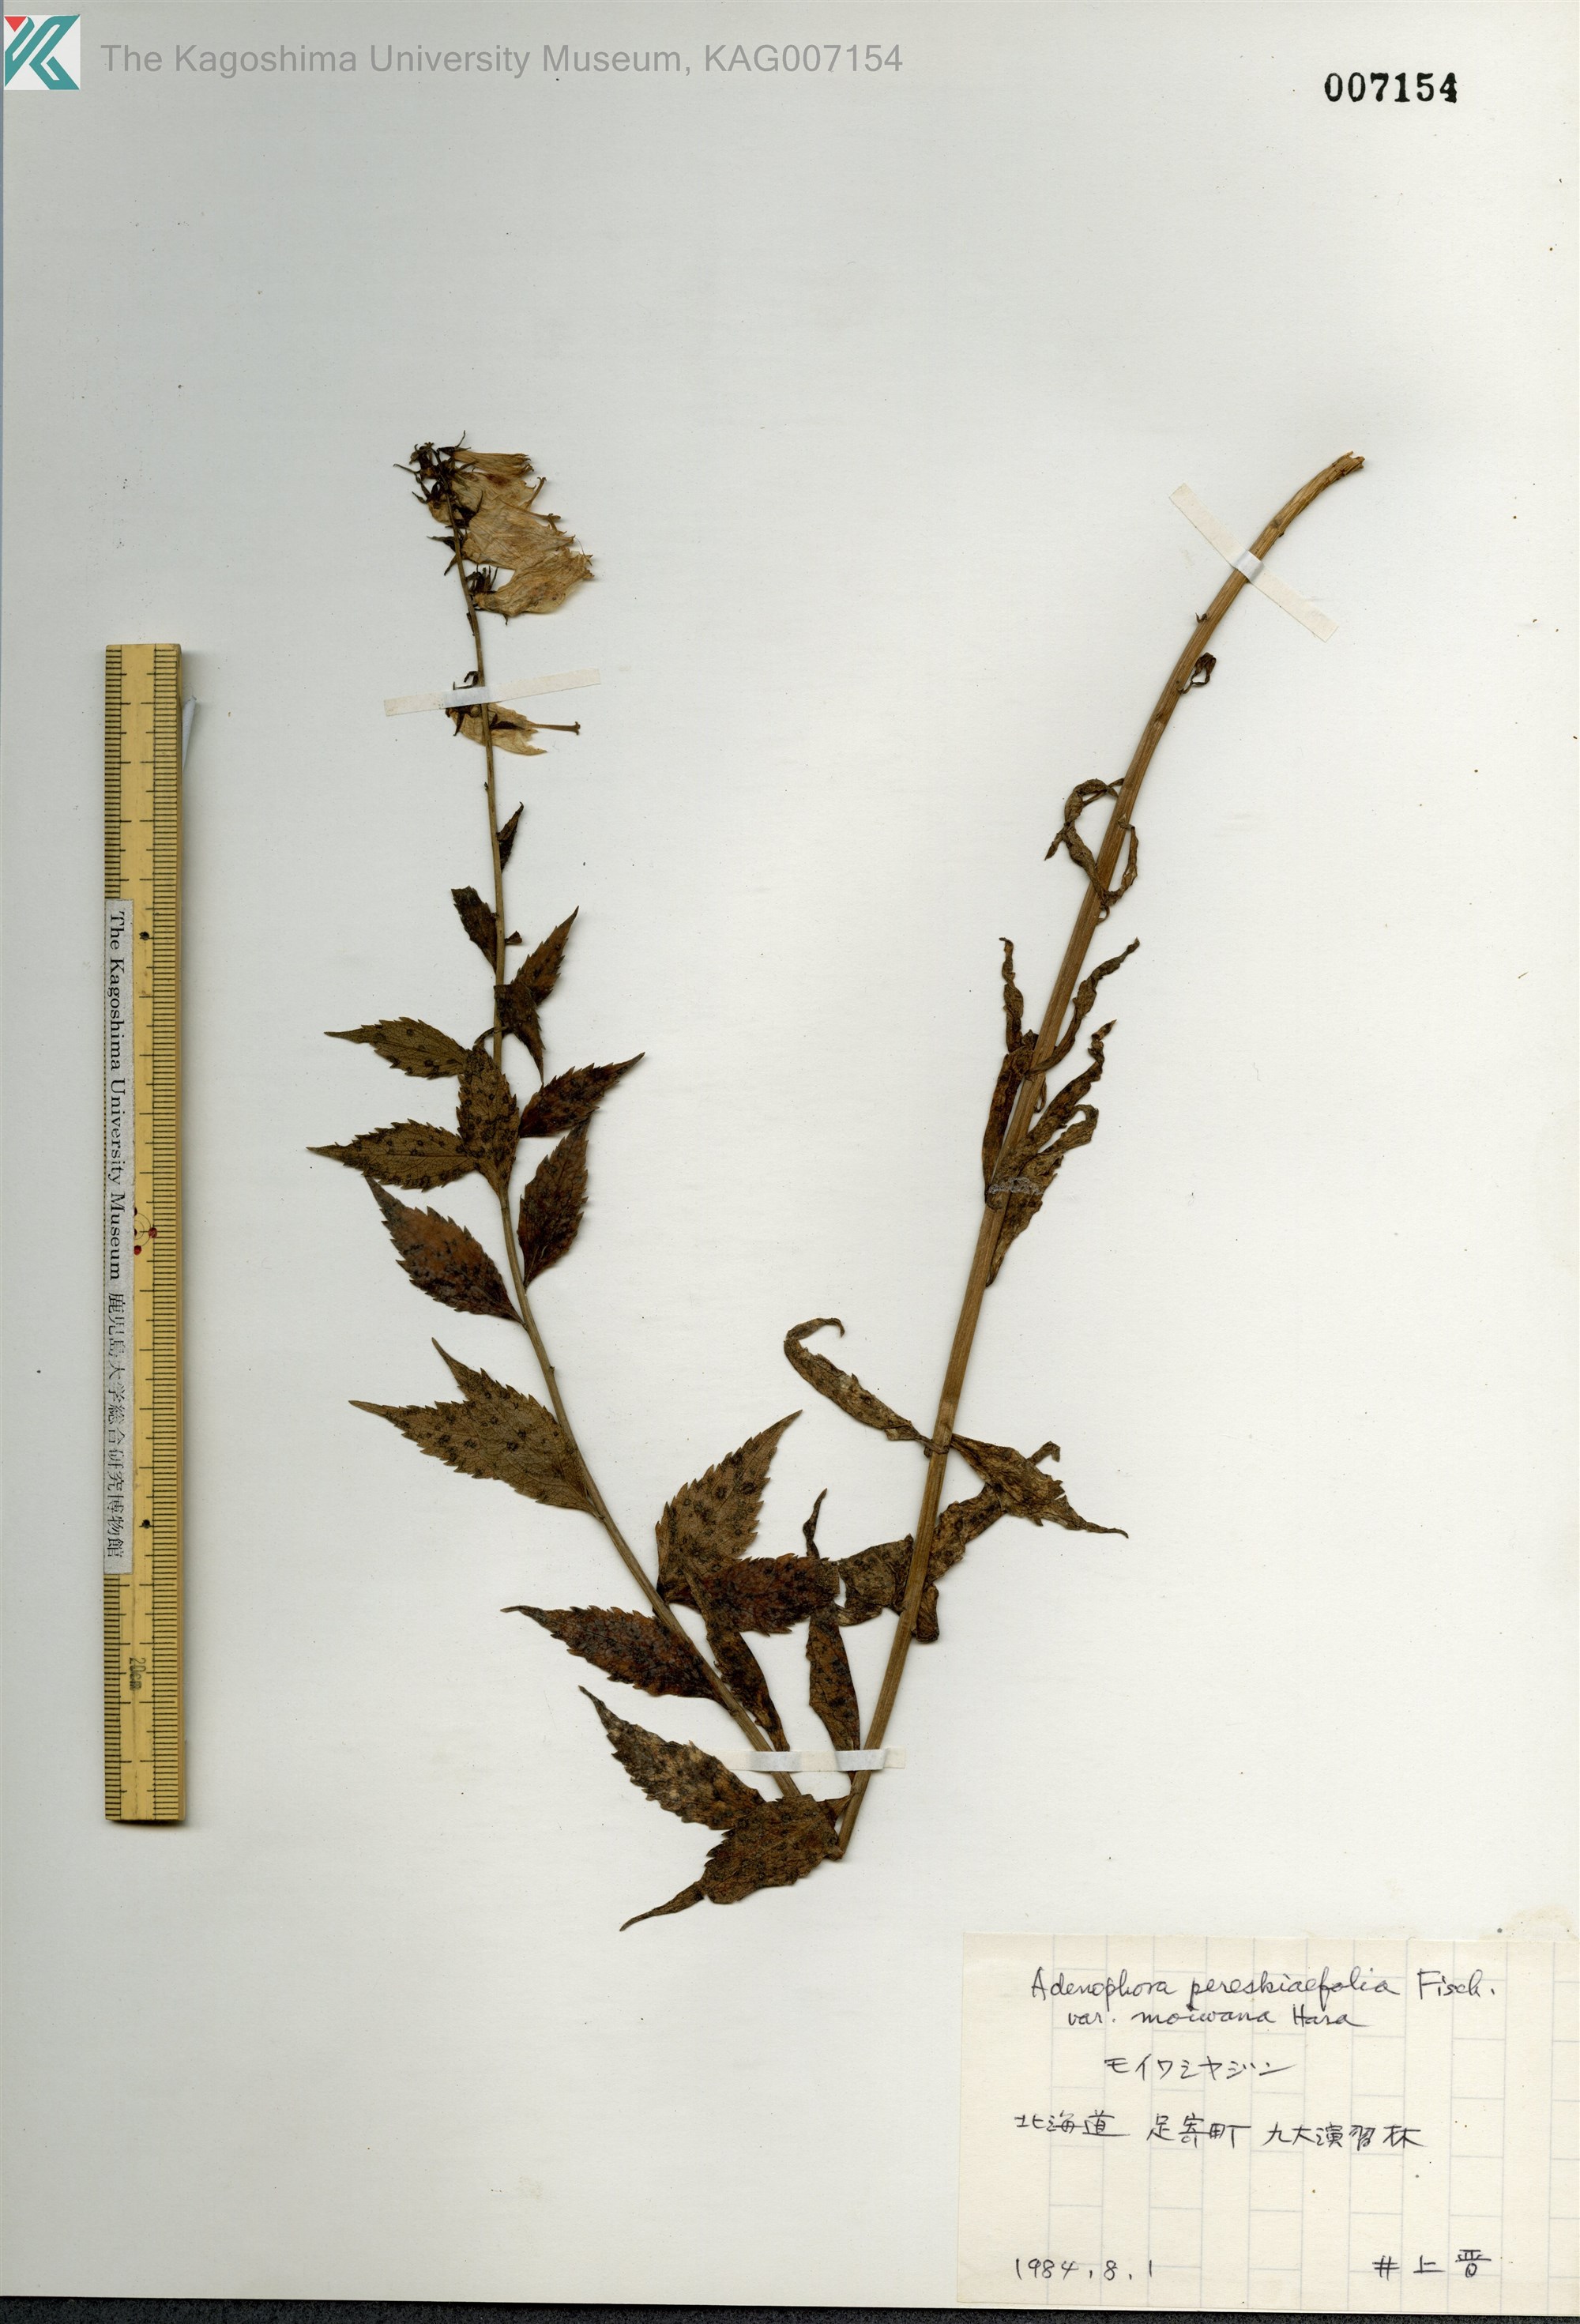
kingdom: Plantae
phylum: Tracheophyta
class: Magnoliopsida
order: Asterales
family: Campanulaceae
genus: Adenophora
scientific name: Adenophora pereskiifolia
